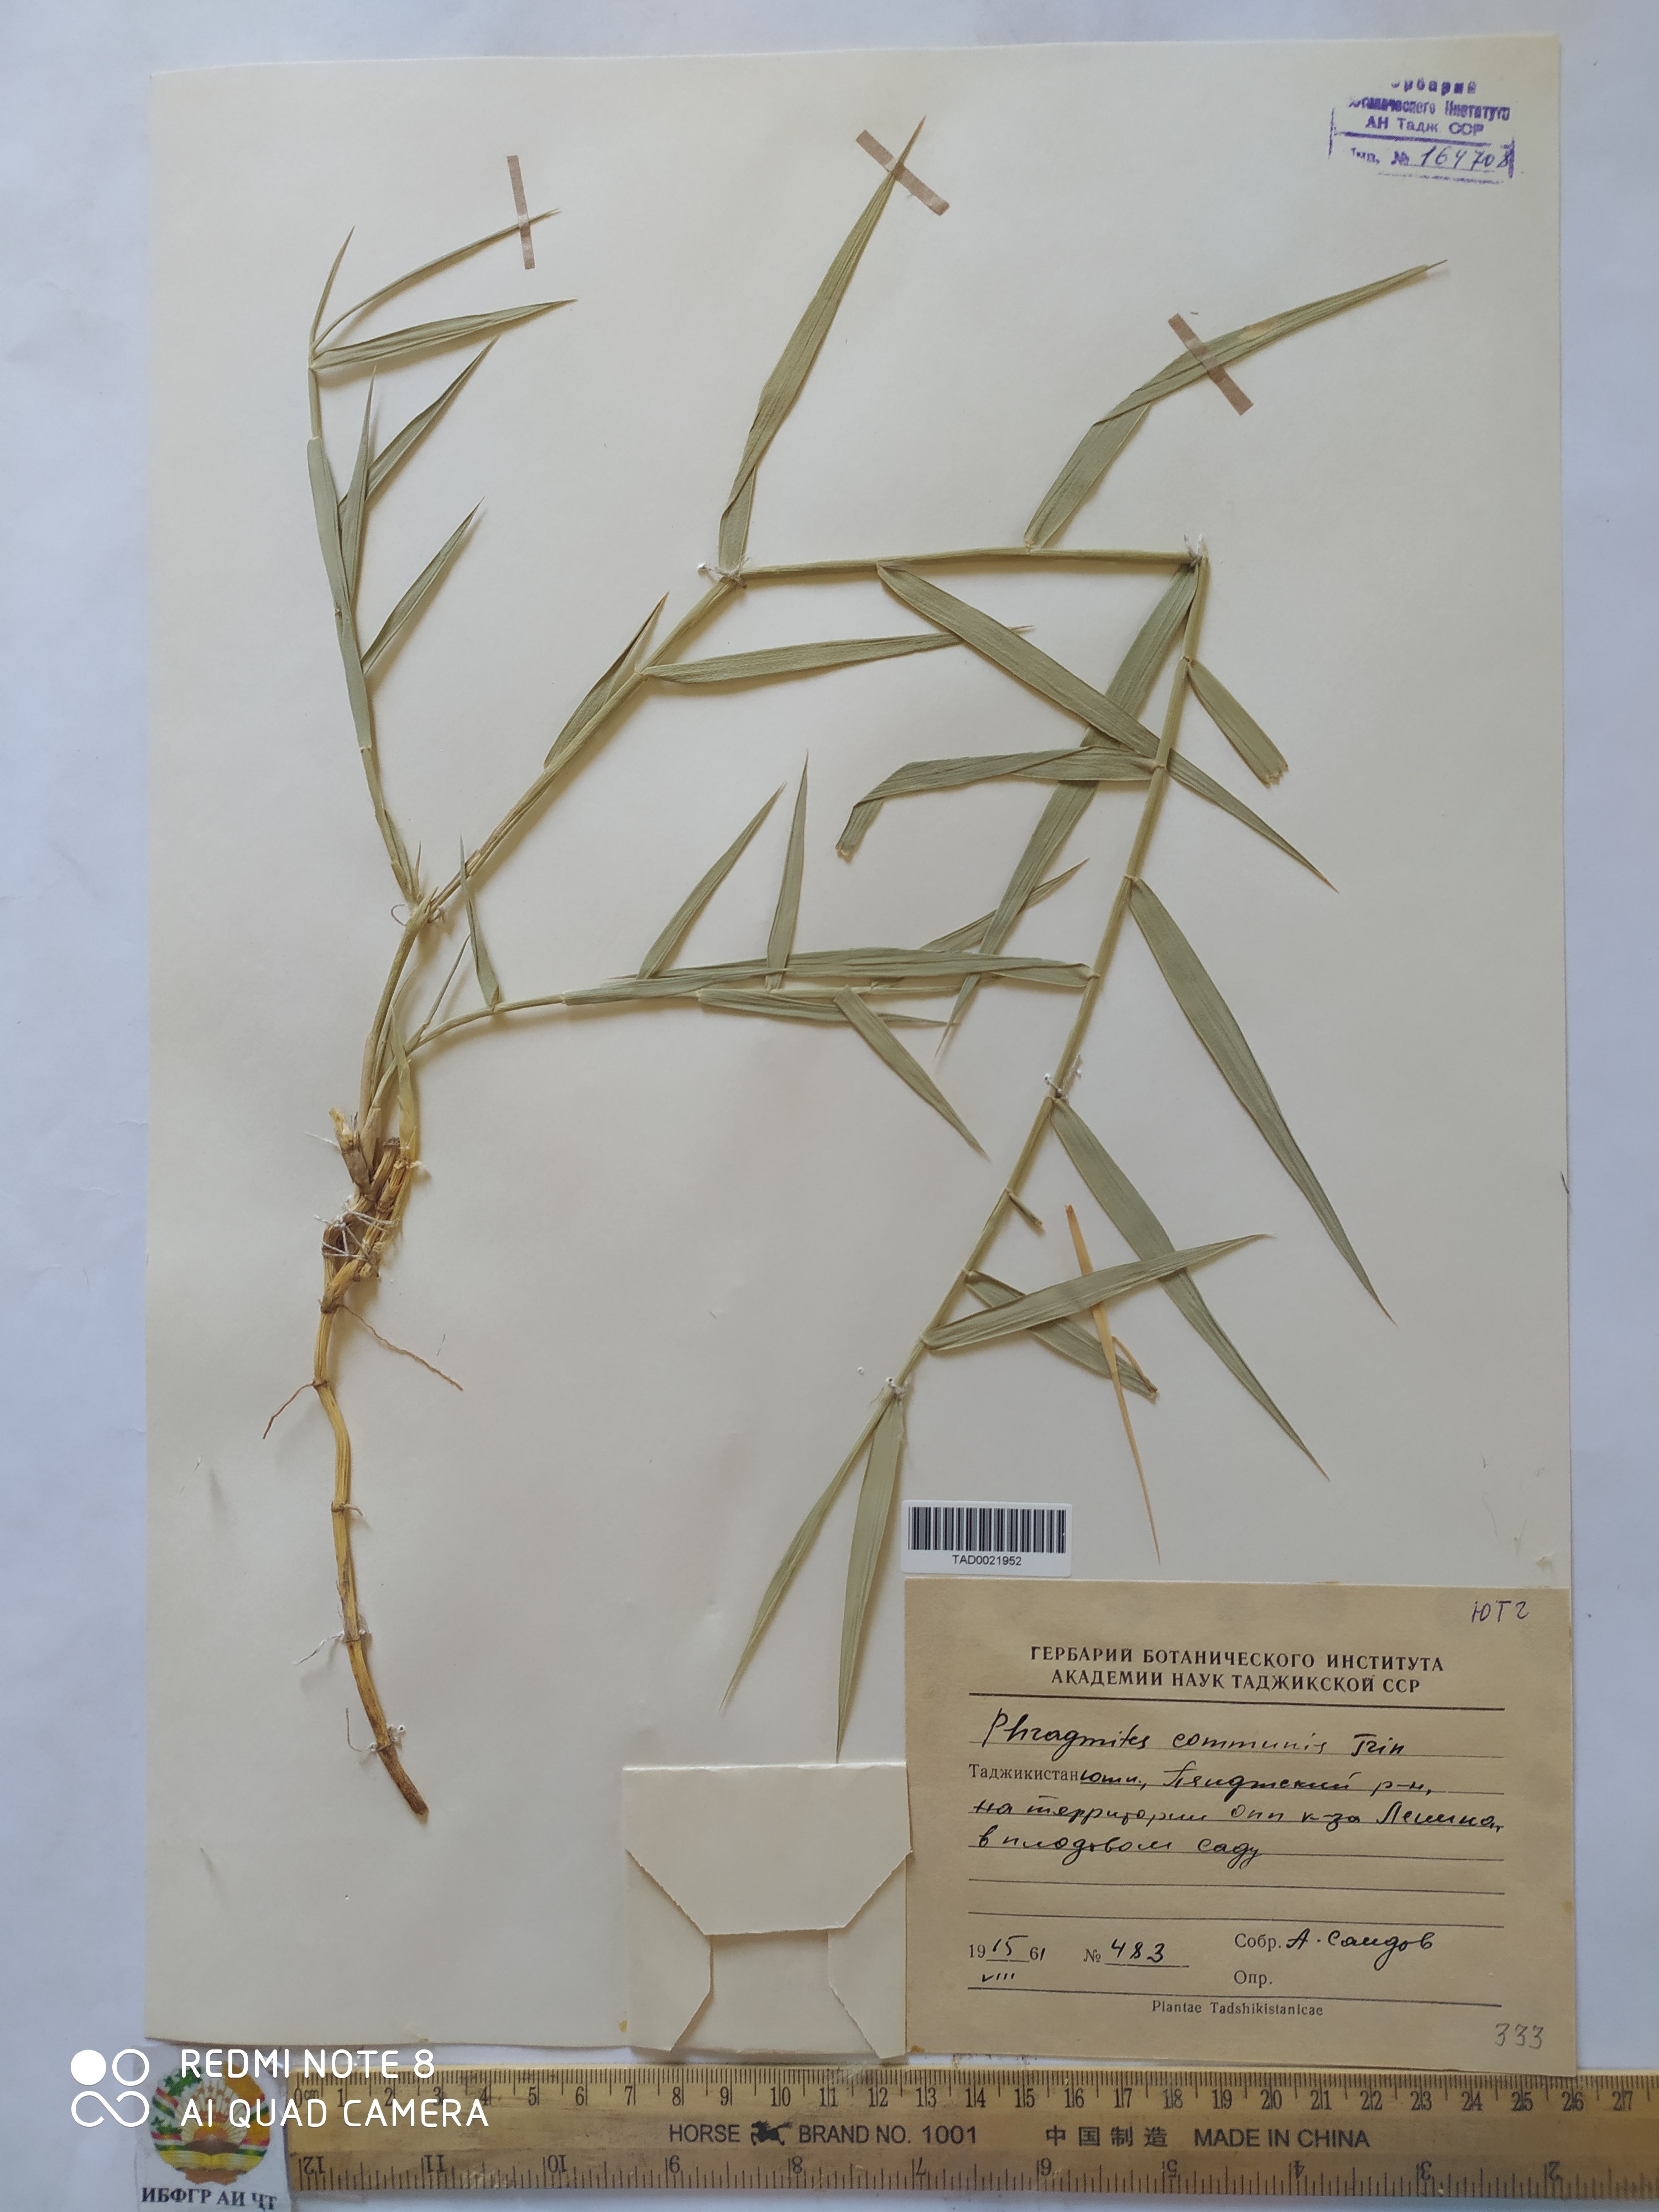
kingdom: Plantae
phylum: Tracheophyta
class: Liliopsida
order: Poales
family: Poaceae
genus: Phragmites
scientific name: Phragmites australis
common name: Common reed
